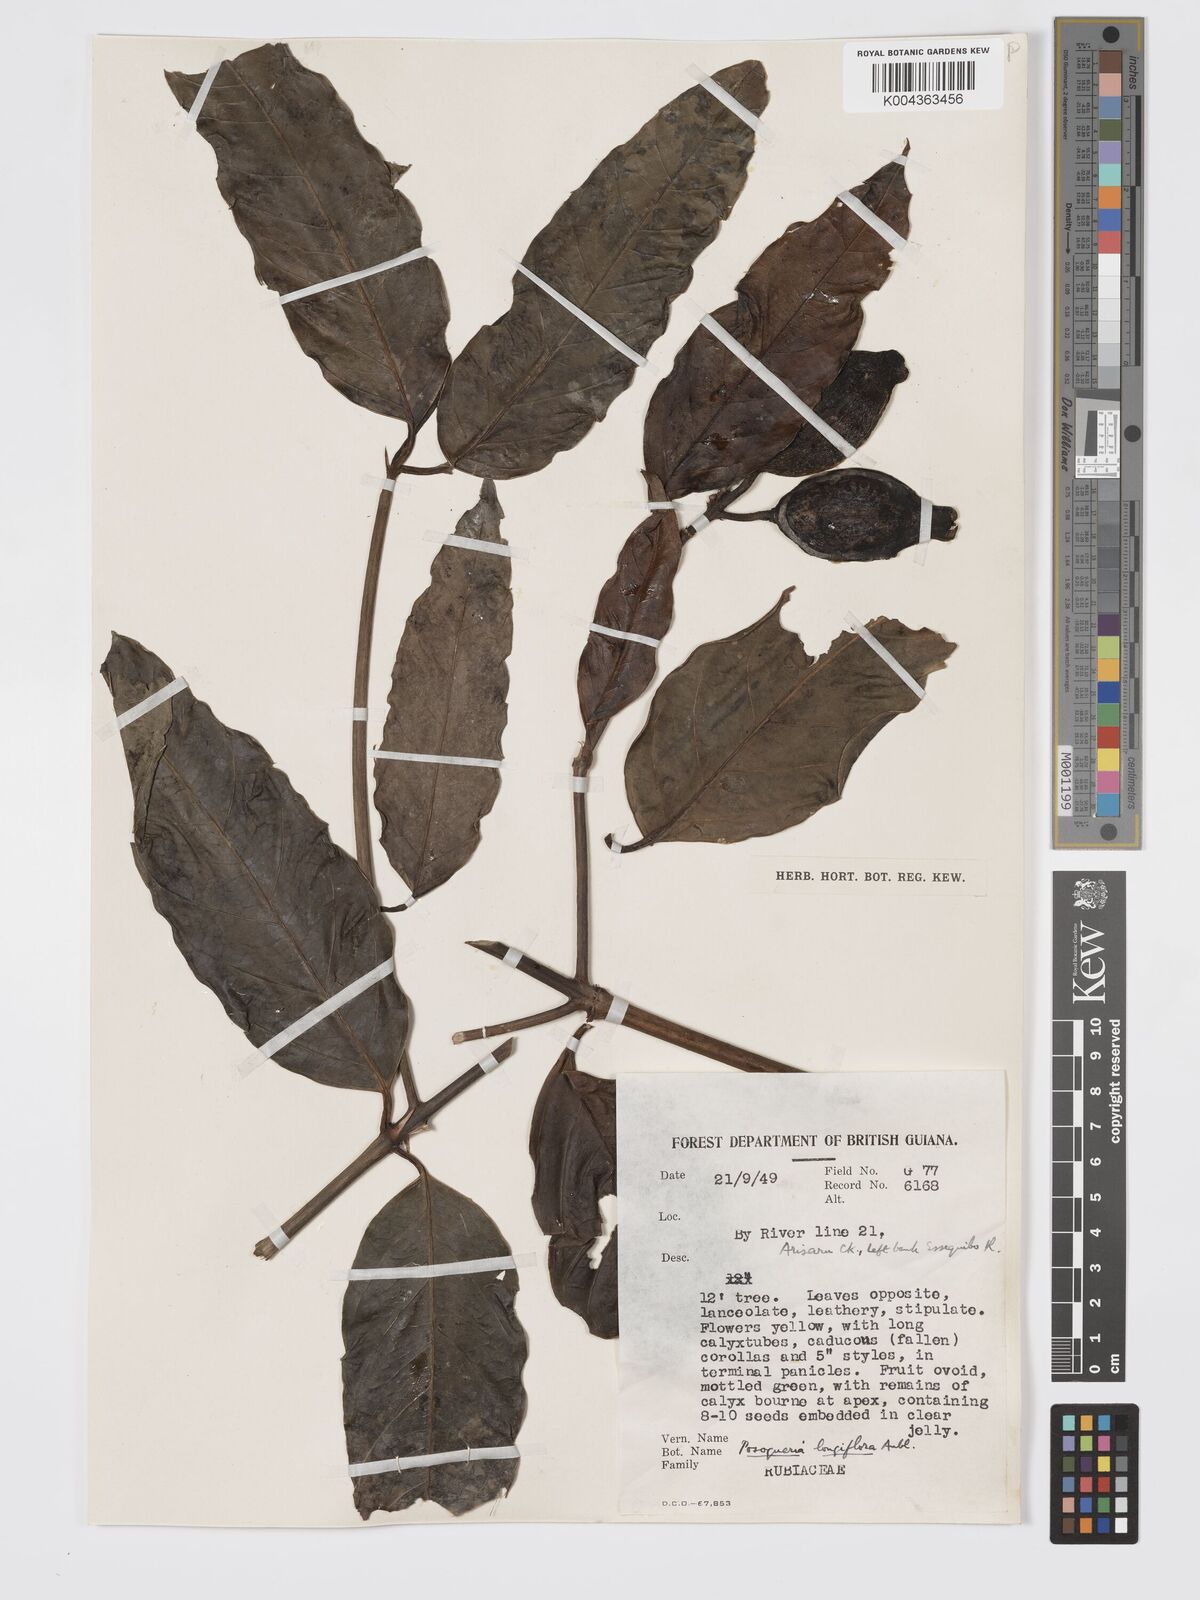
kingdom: Plantae
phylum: Tracheophyta
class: Magnoliopsida
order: Gentianales
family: Rubiaceae
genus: Posoqueria
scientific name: Posoqueria
